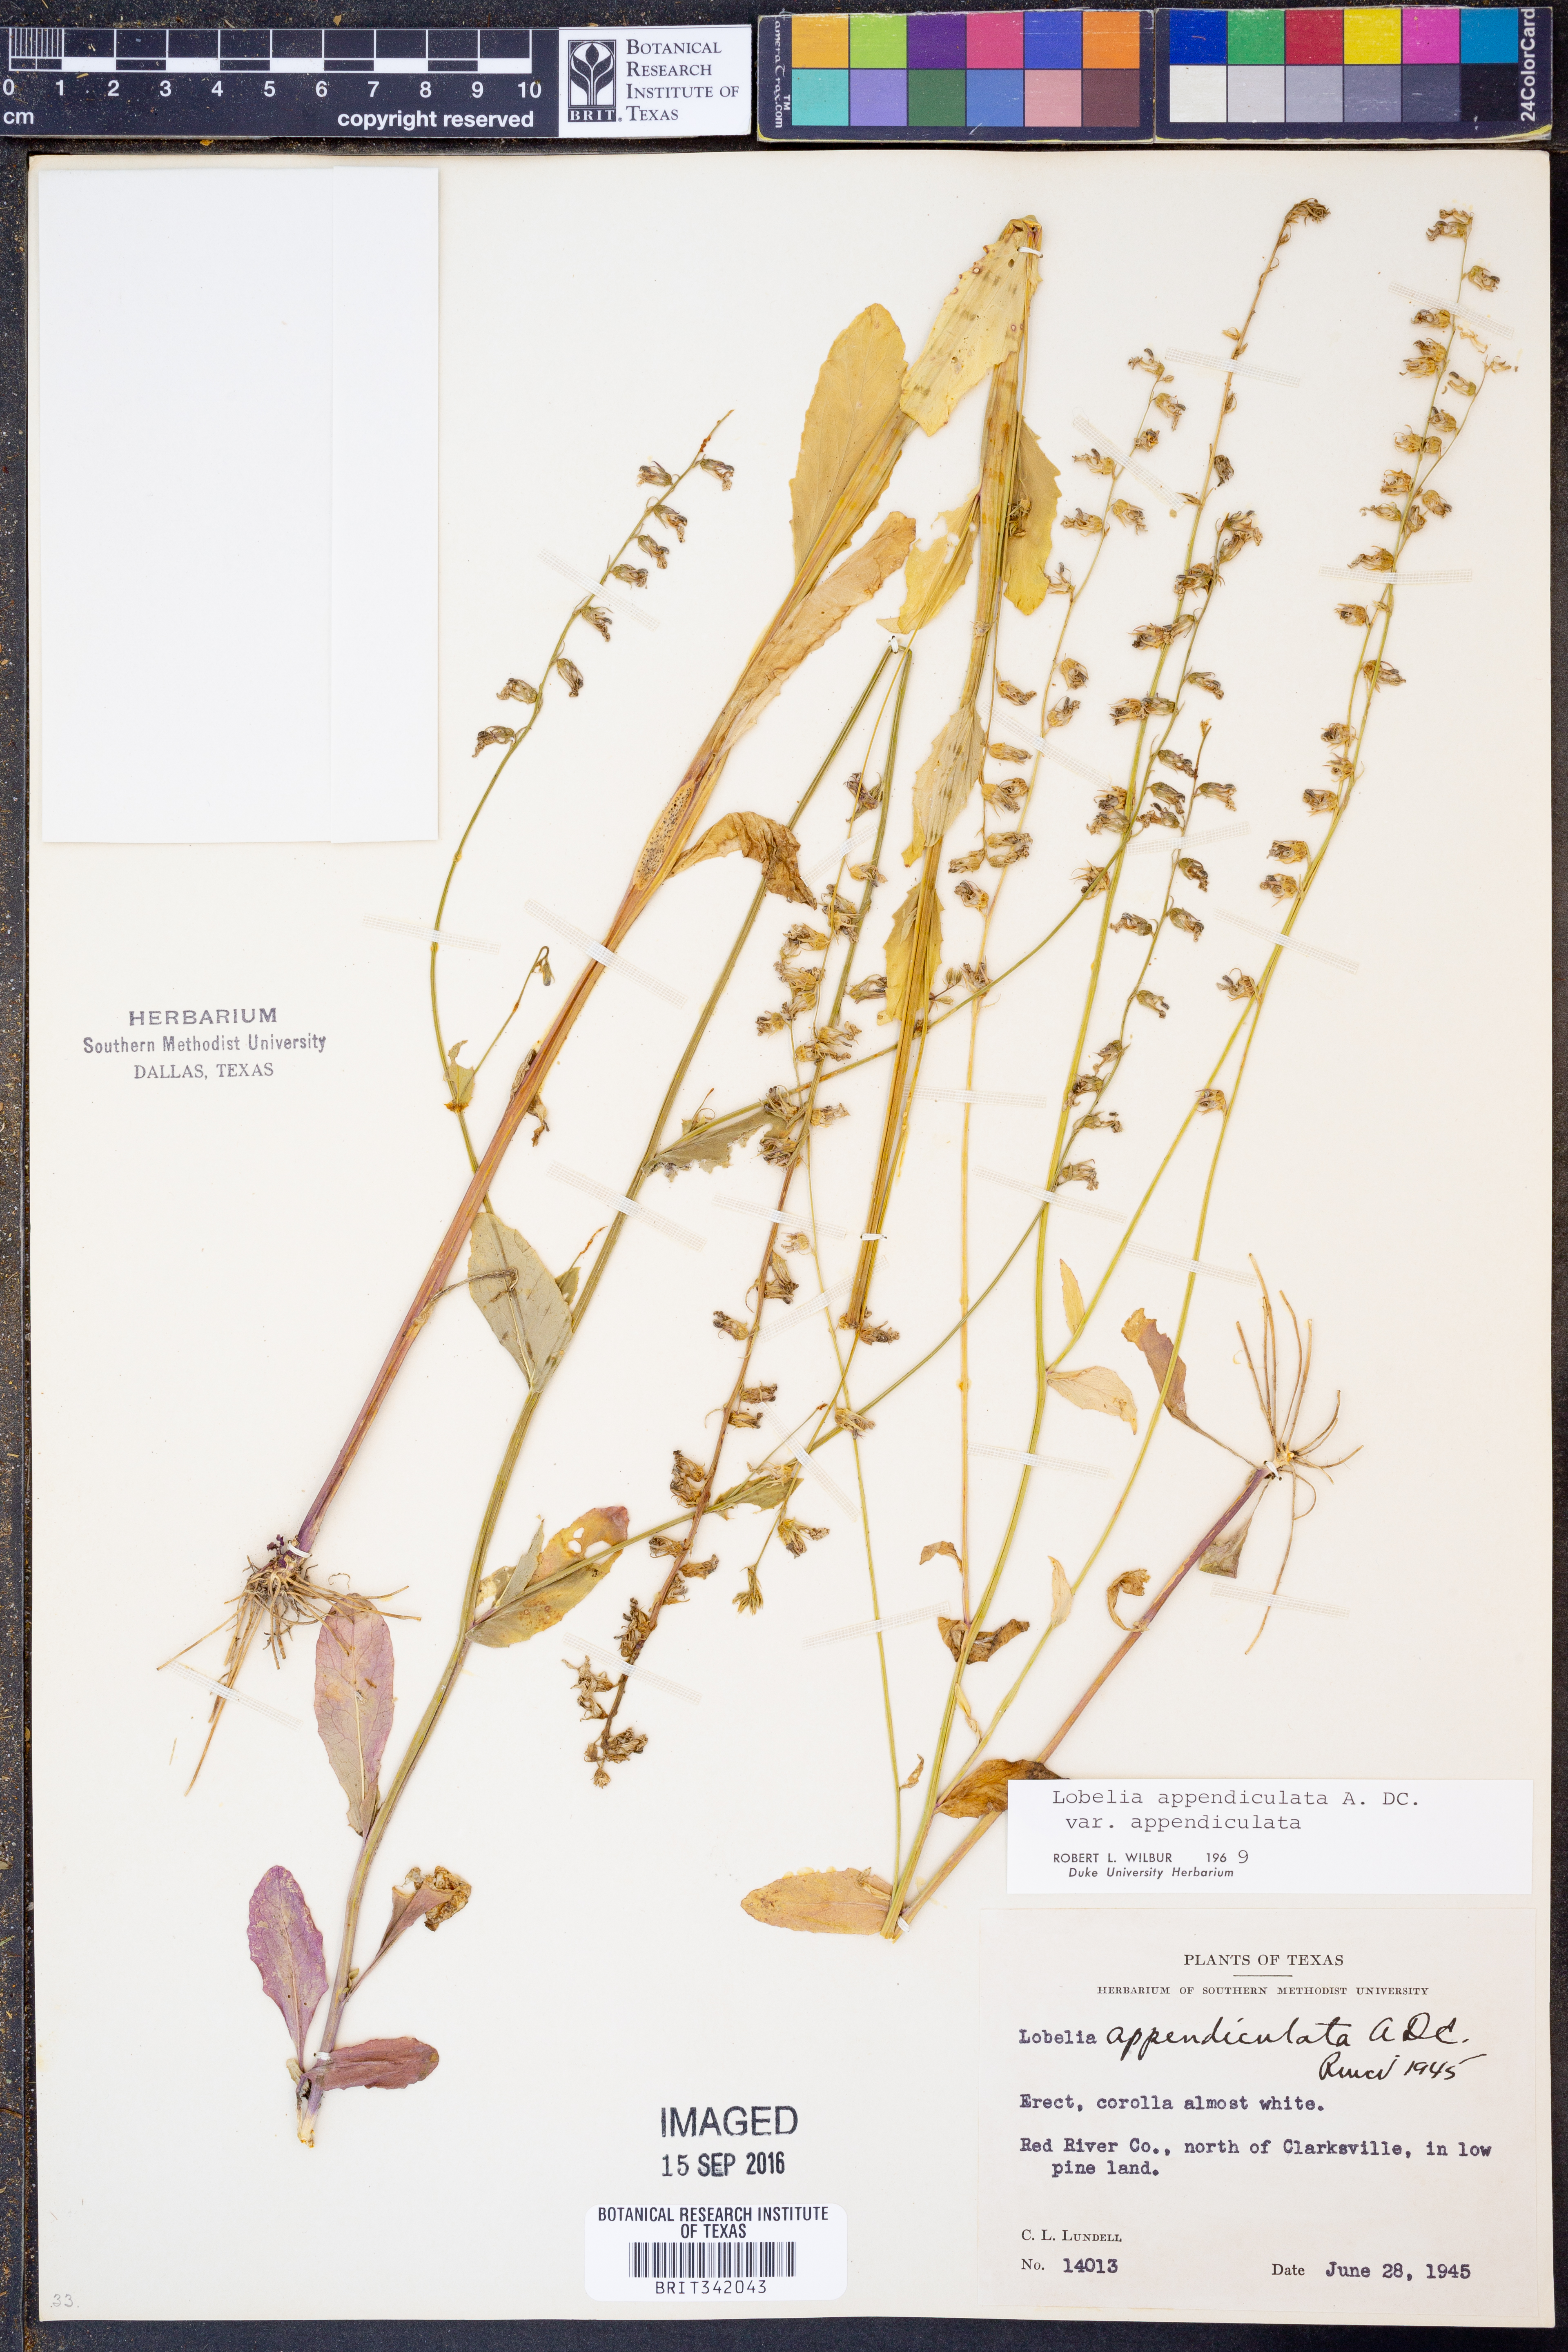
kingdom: Plantae
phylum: Tracheophyta
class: Magnoliopsida
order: Asterales
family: Campanulaceae
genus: Lobelia
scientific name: Lobelia appendiculata
